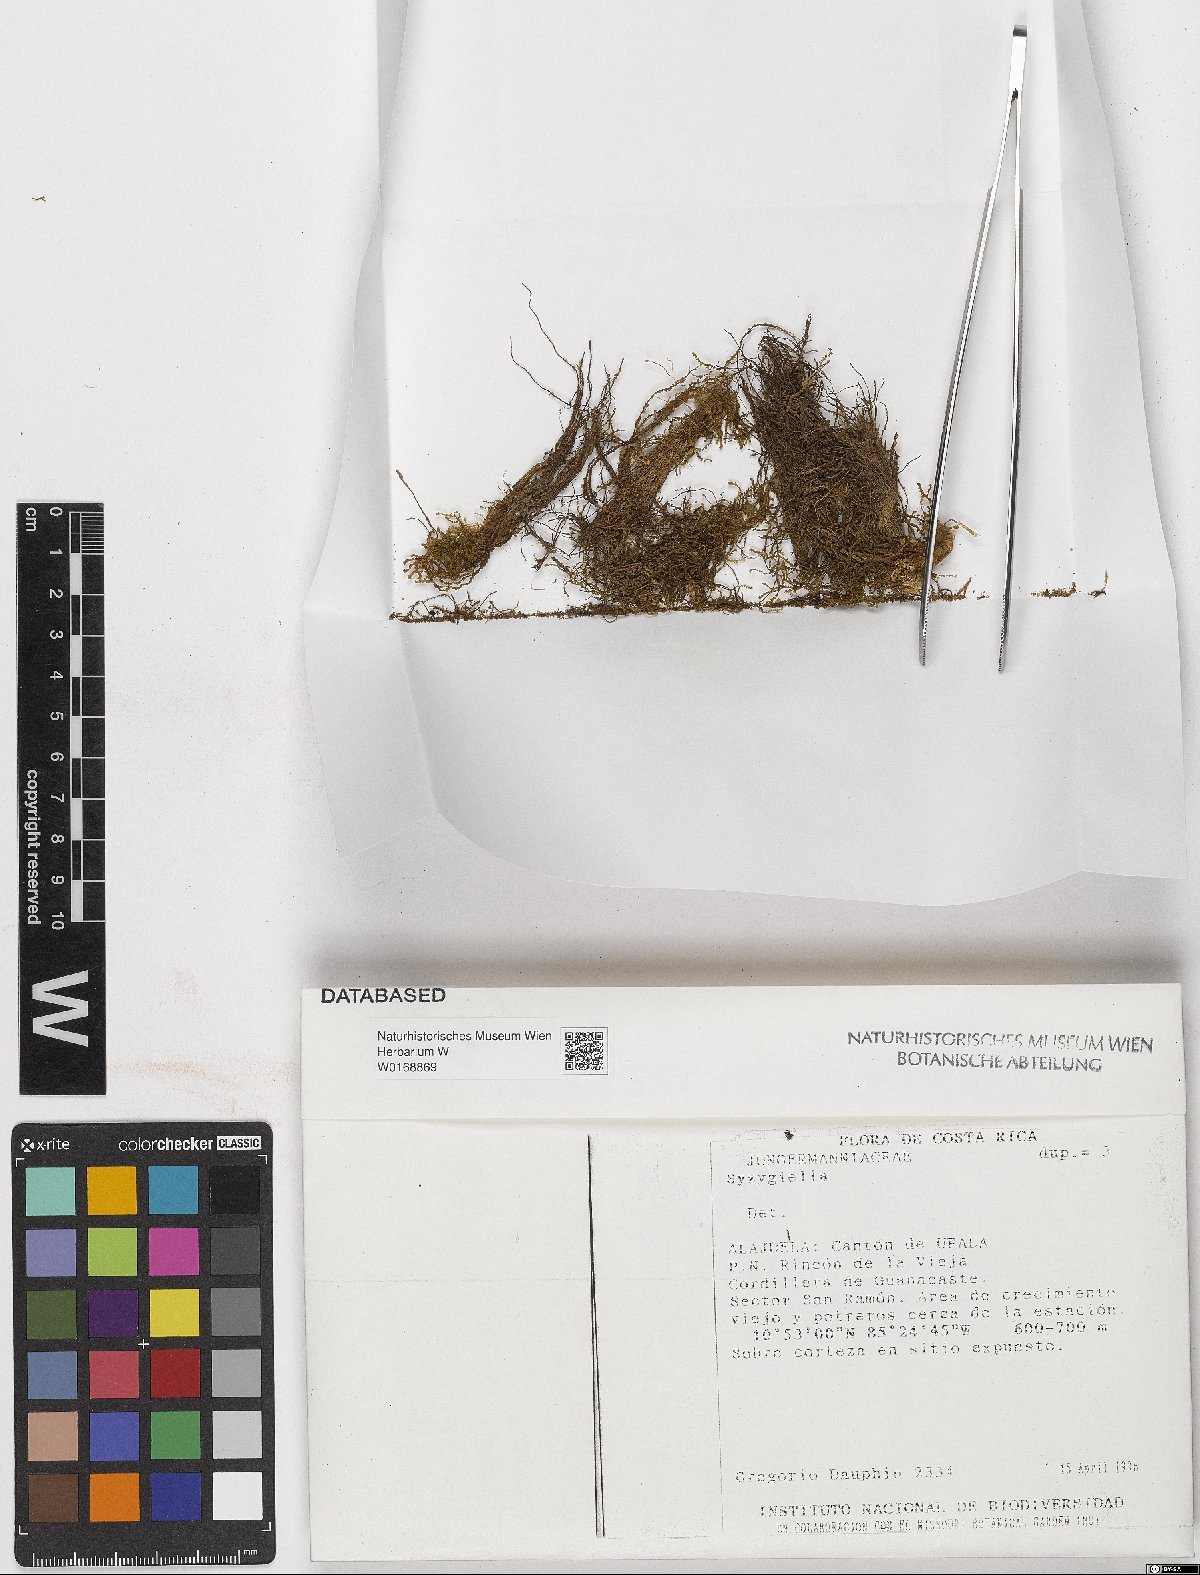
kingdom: Plantae
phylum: Marchantiophyta
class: Jungermanniopsida
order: Jungermanniales
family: Adelanthaceae
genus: Syzygiella
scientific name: Syzygiella
